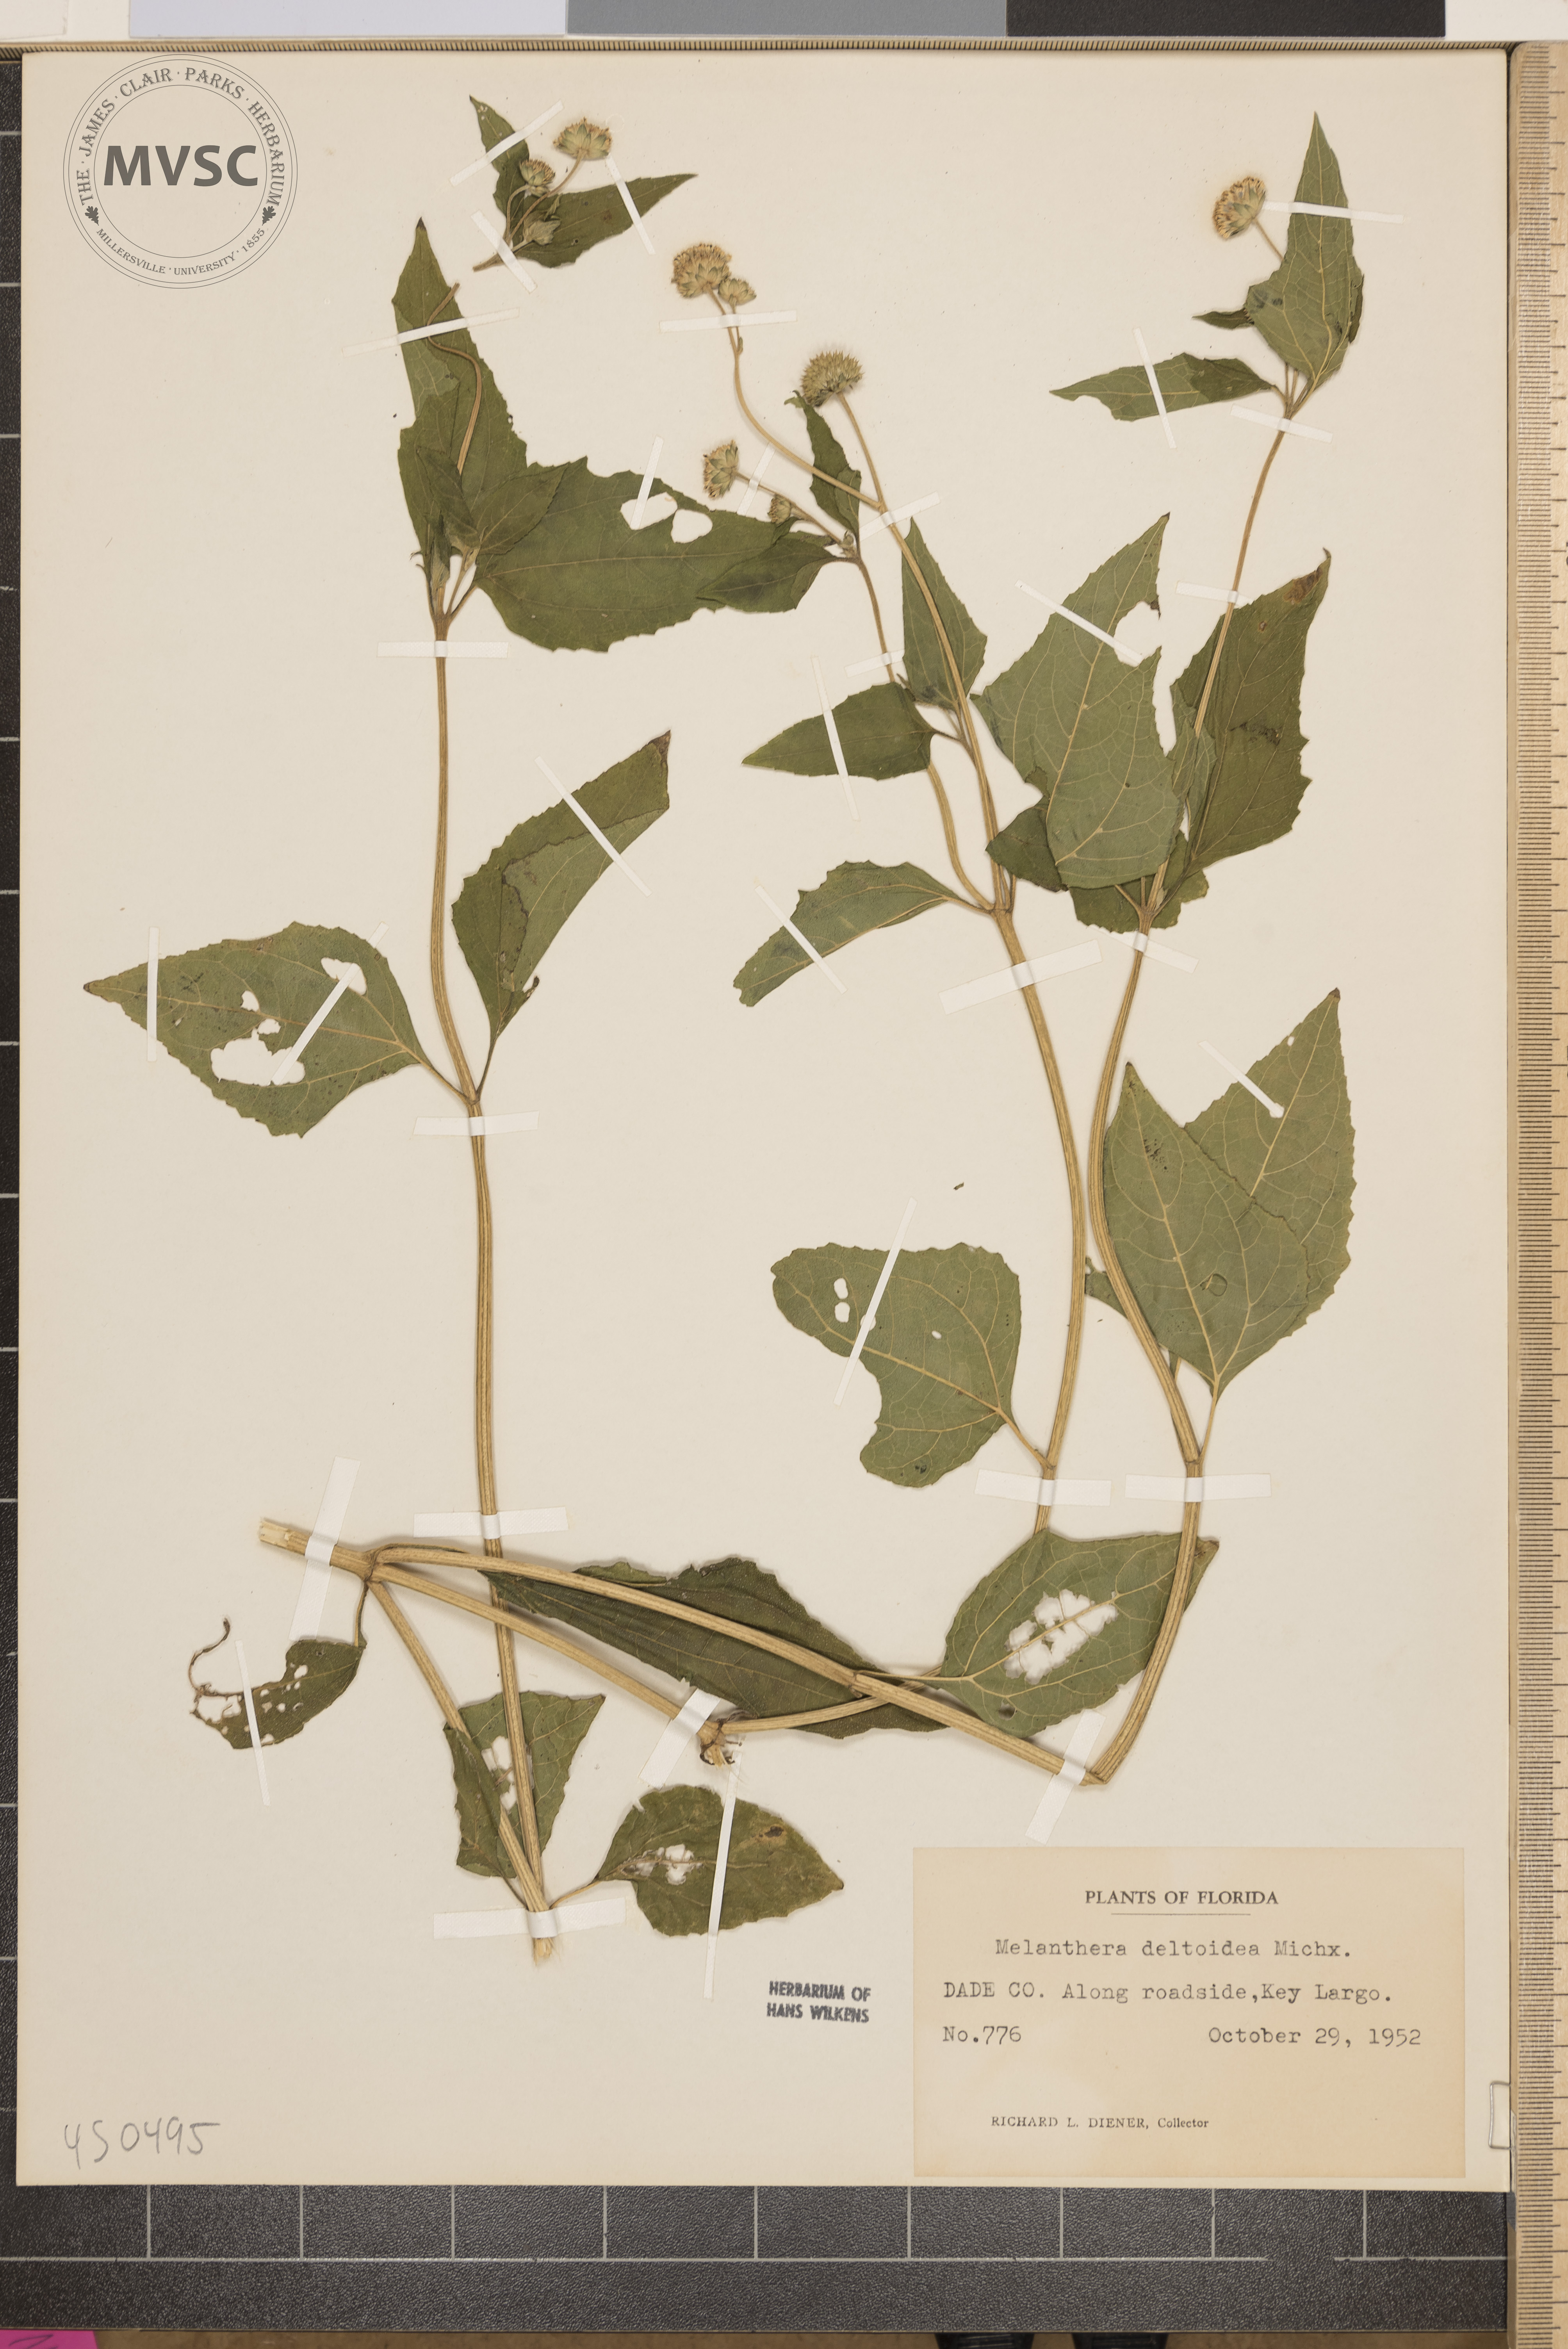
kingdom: Plantae
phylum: Tracheophyta
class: Magnoliopsida
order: Asterales
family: Asteraceae
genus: Melanthera
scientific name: Melanthera nivea
